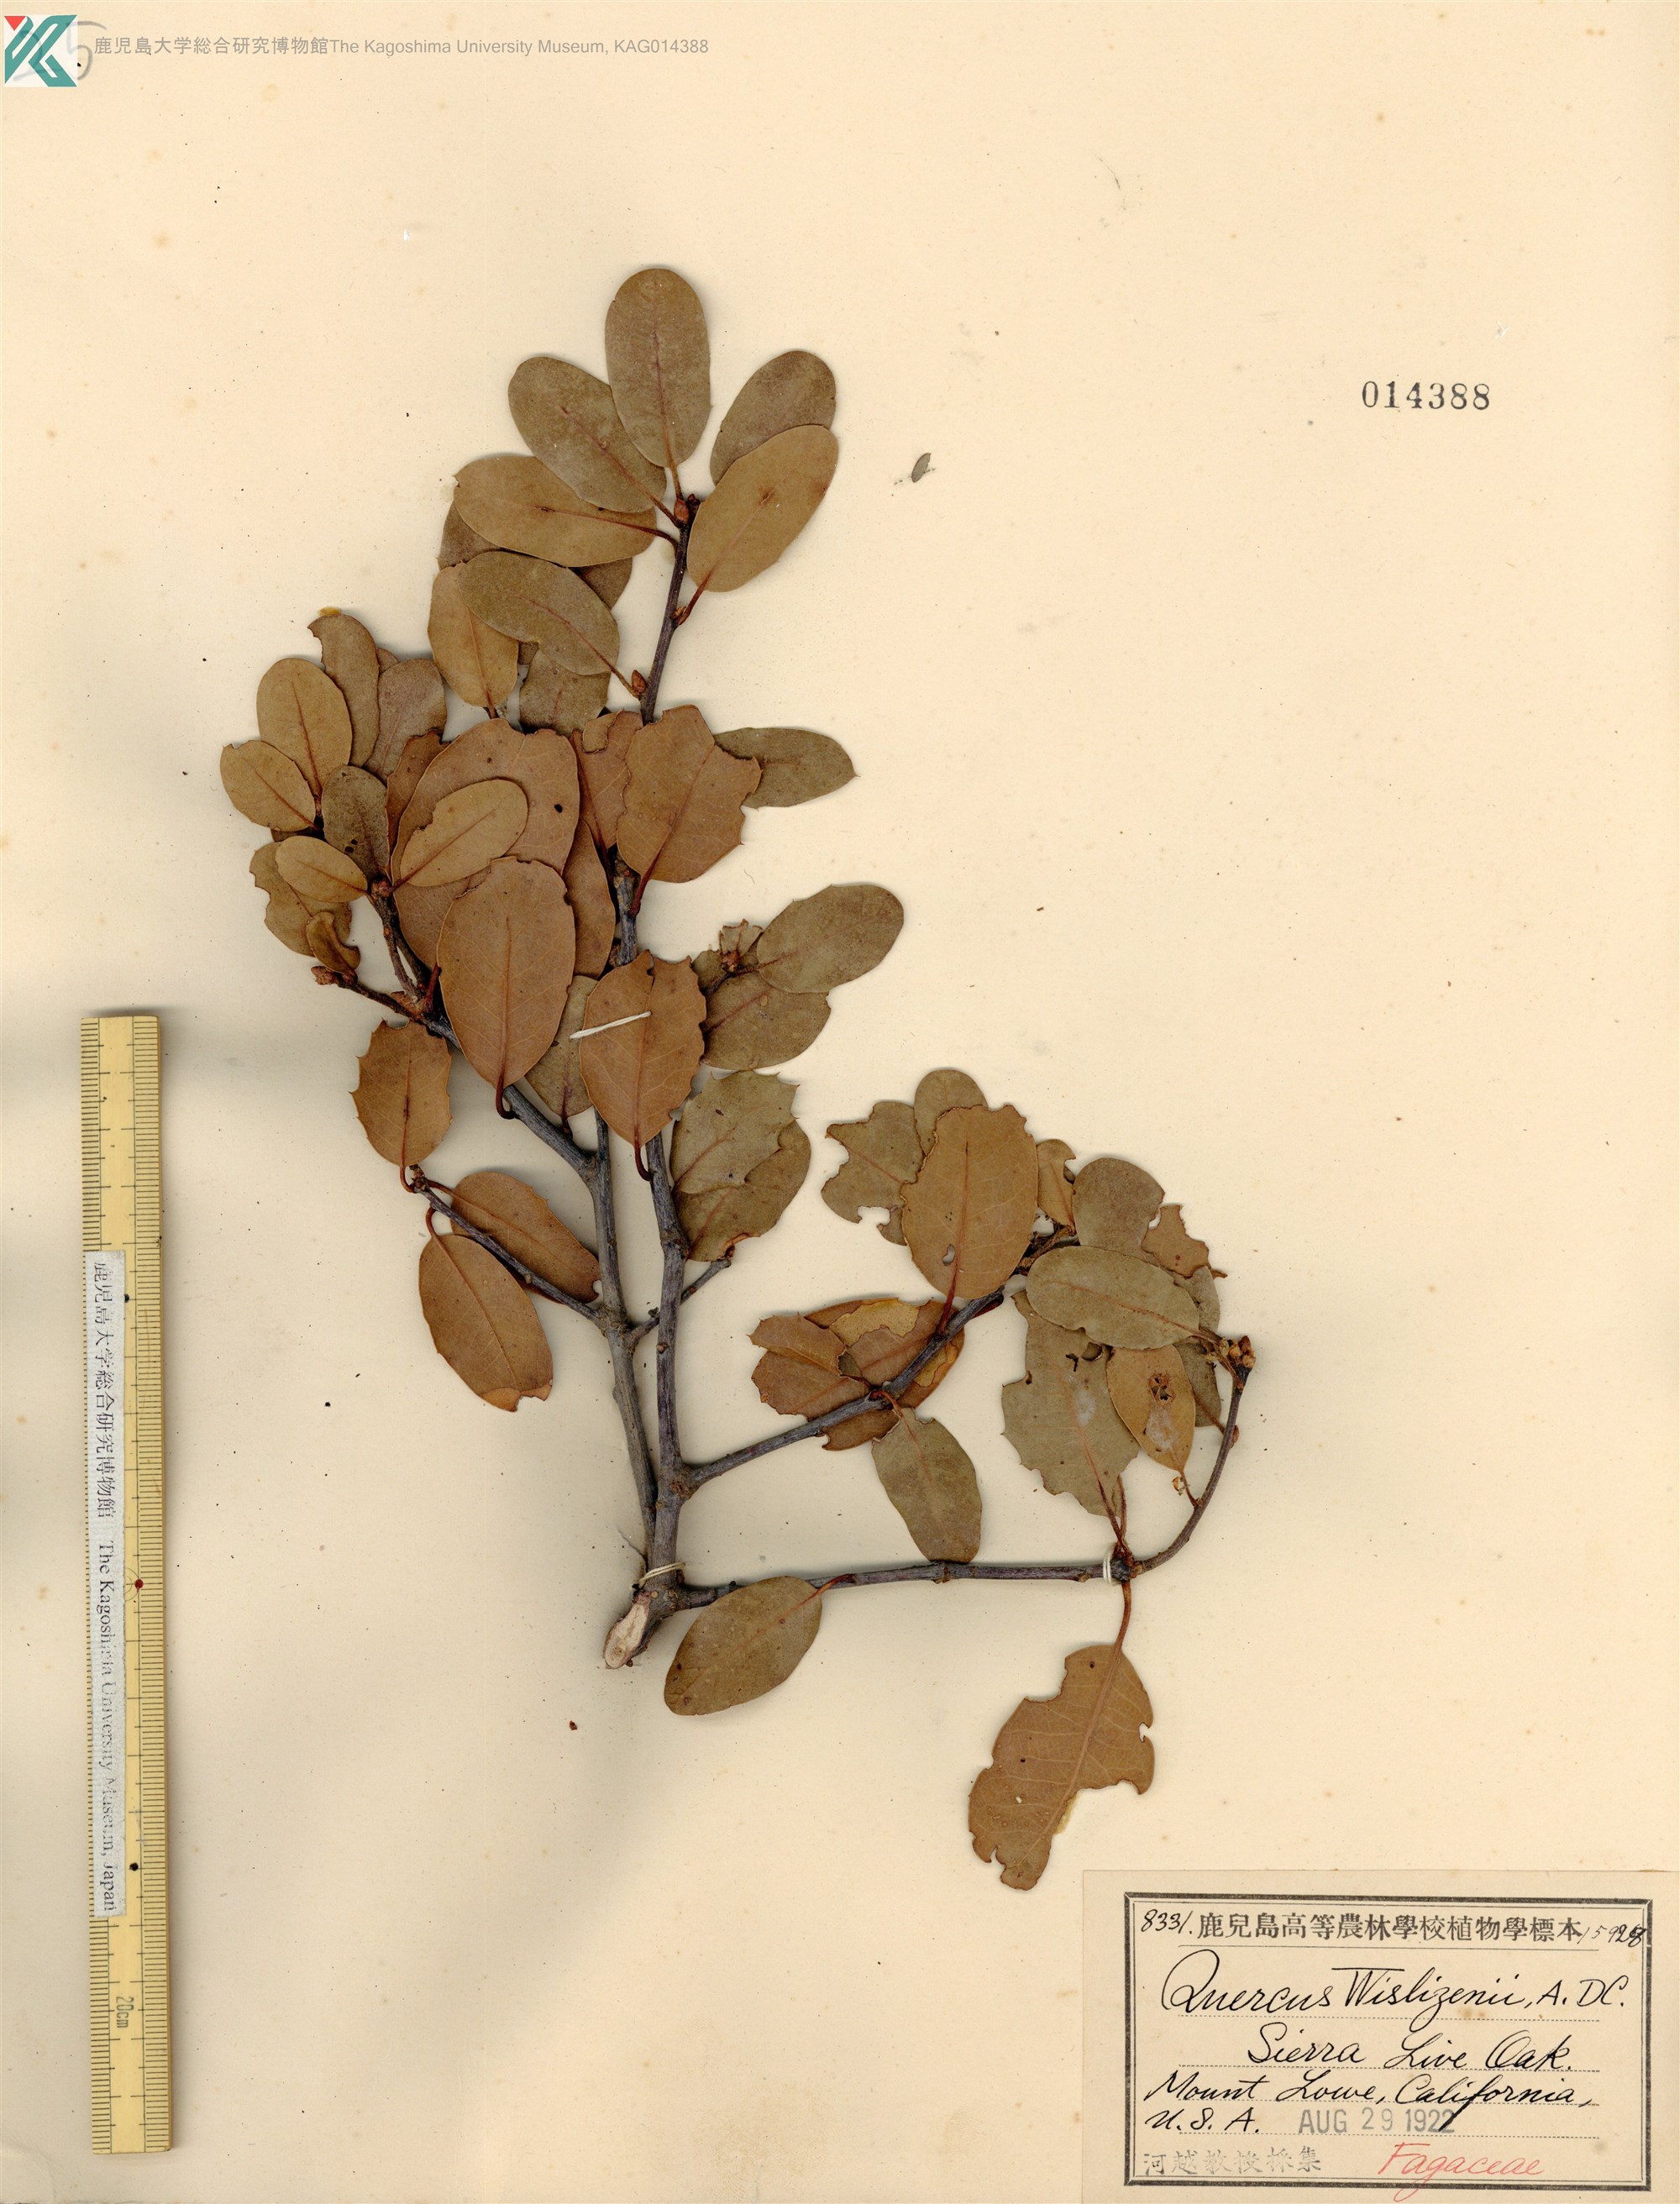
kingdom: Plantae
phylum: Tracheophyta
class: Magnoliopsida
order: Fagales
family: Fagaceae
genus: Quercus
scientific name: Quercus wislizeni
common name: Interior live oak
